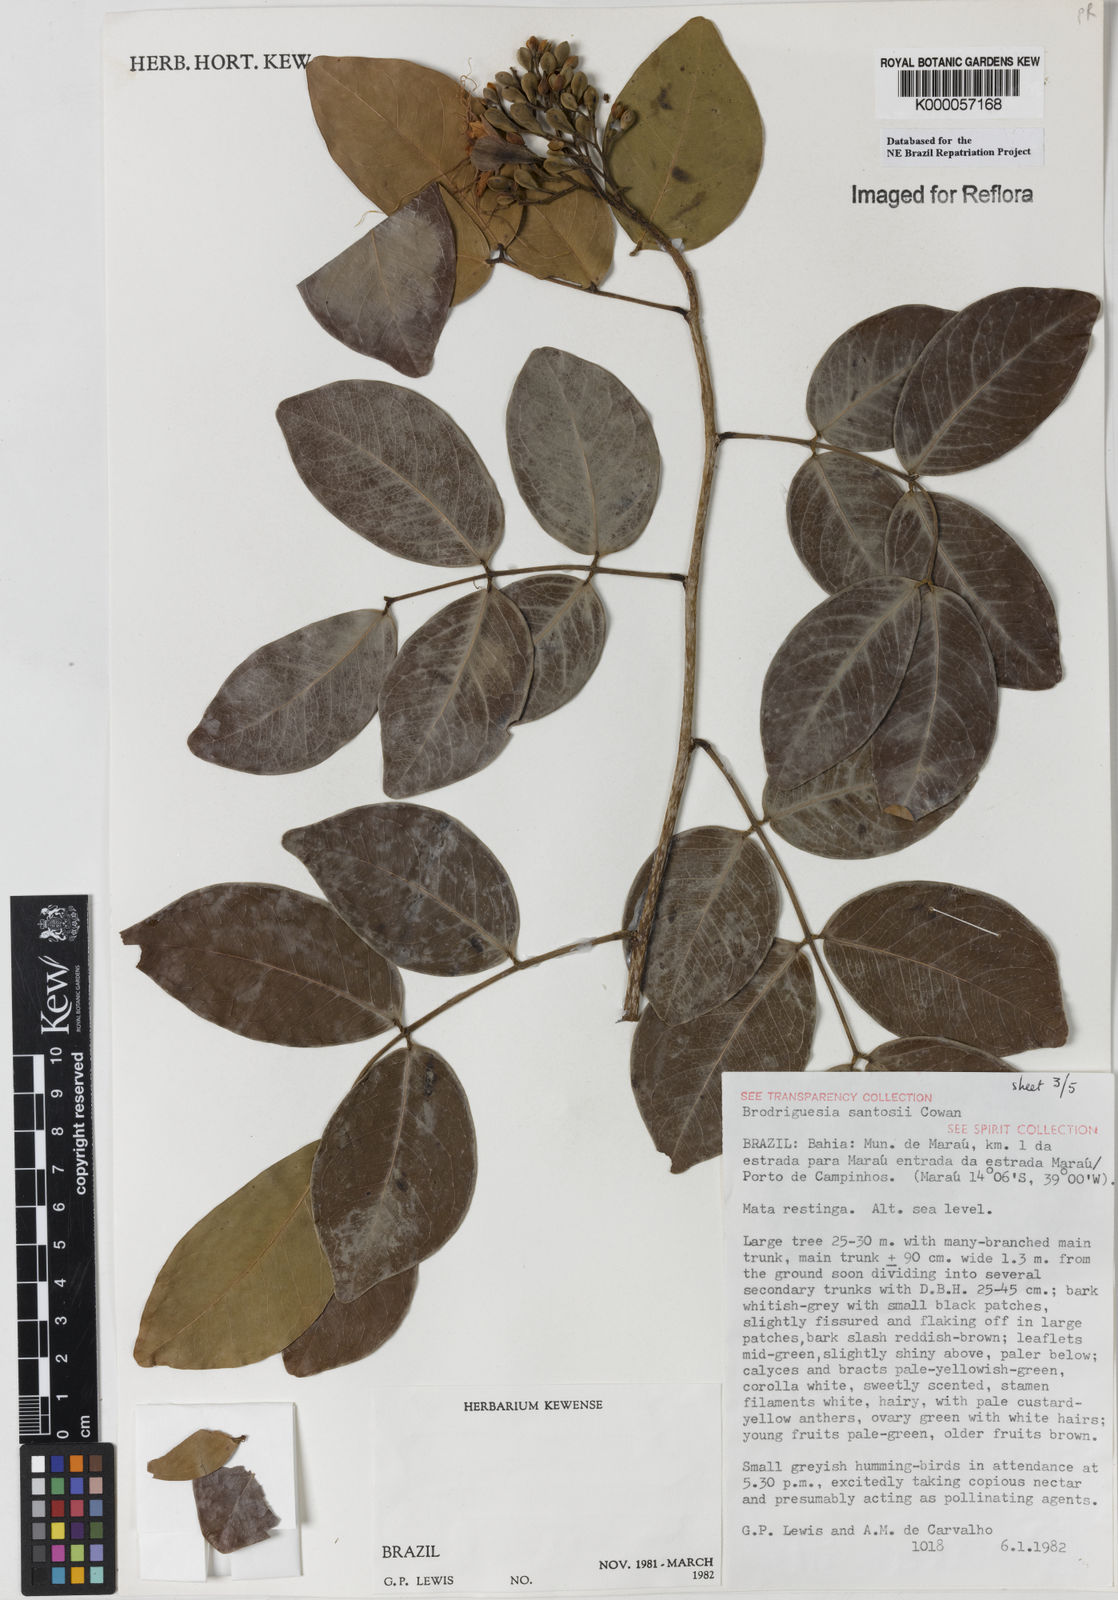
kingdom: Plantae
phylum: Tracheophyta
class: Magnoliopsida
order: Fabales
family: Fabaceae
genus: Brodriguesia
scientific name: Brodriguesia santosii
